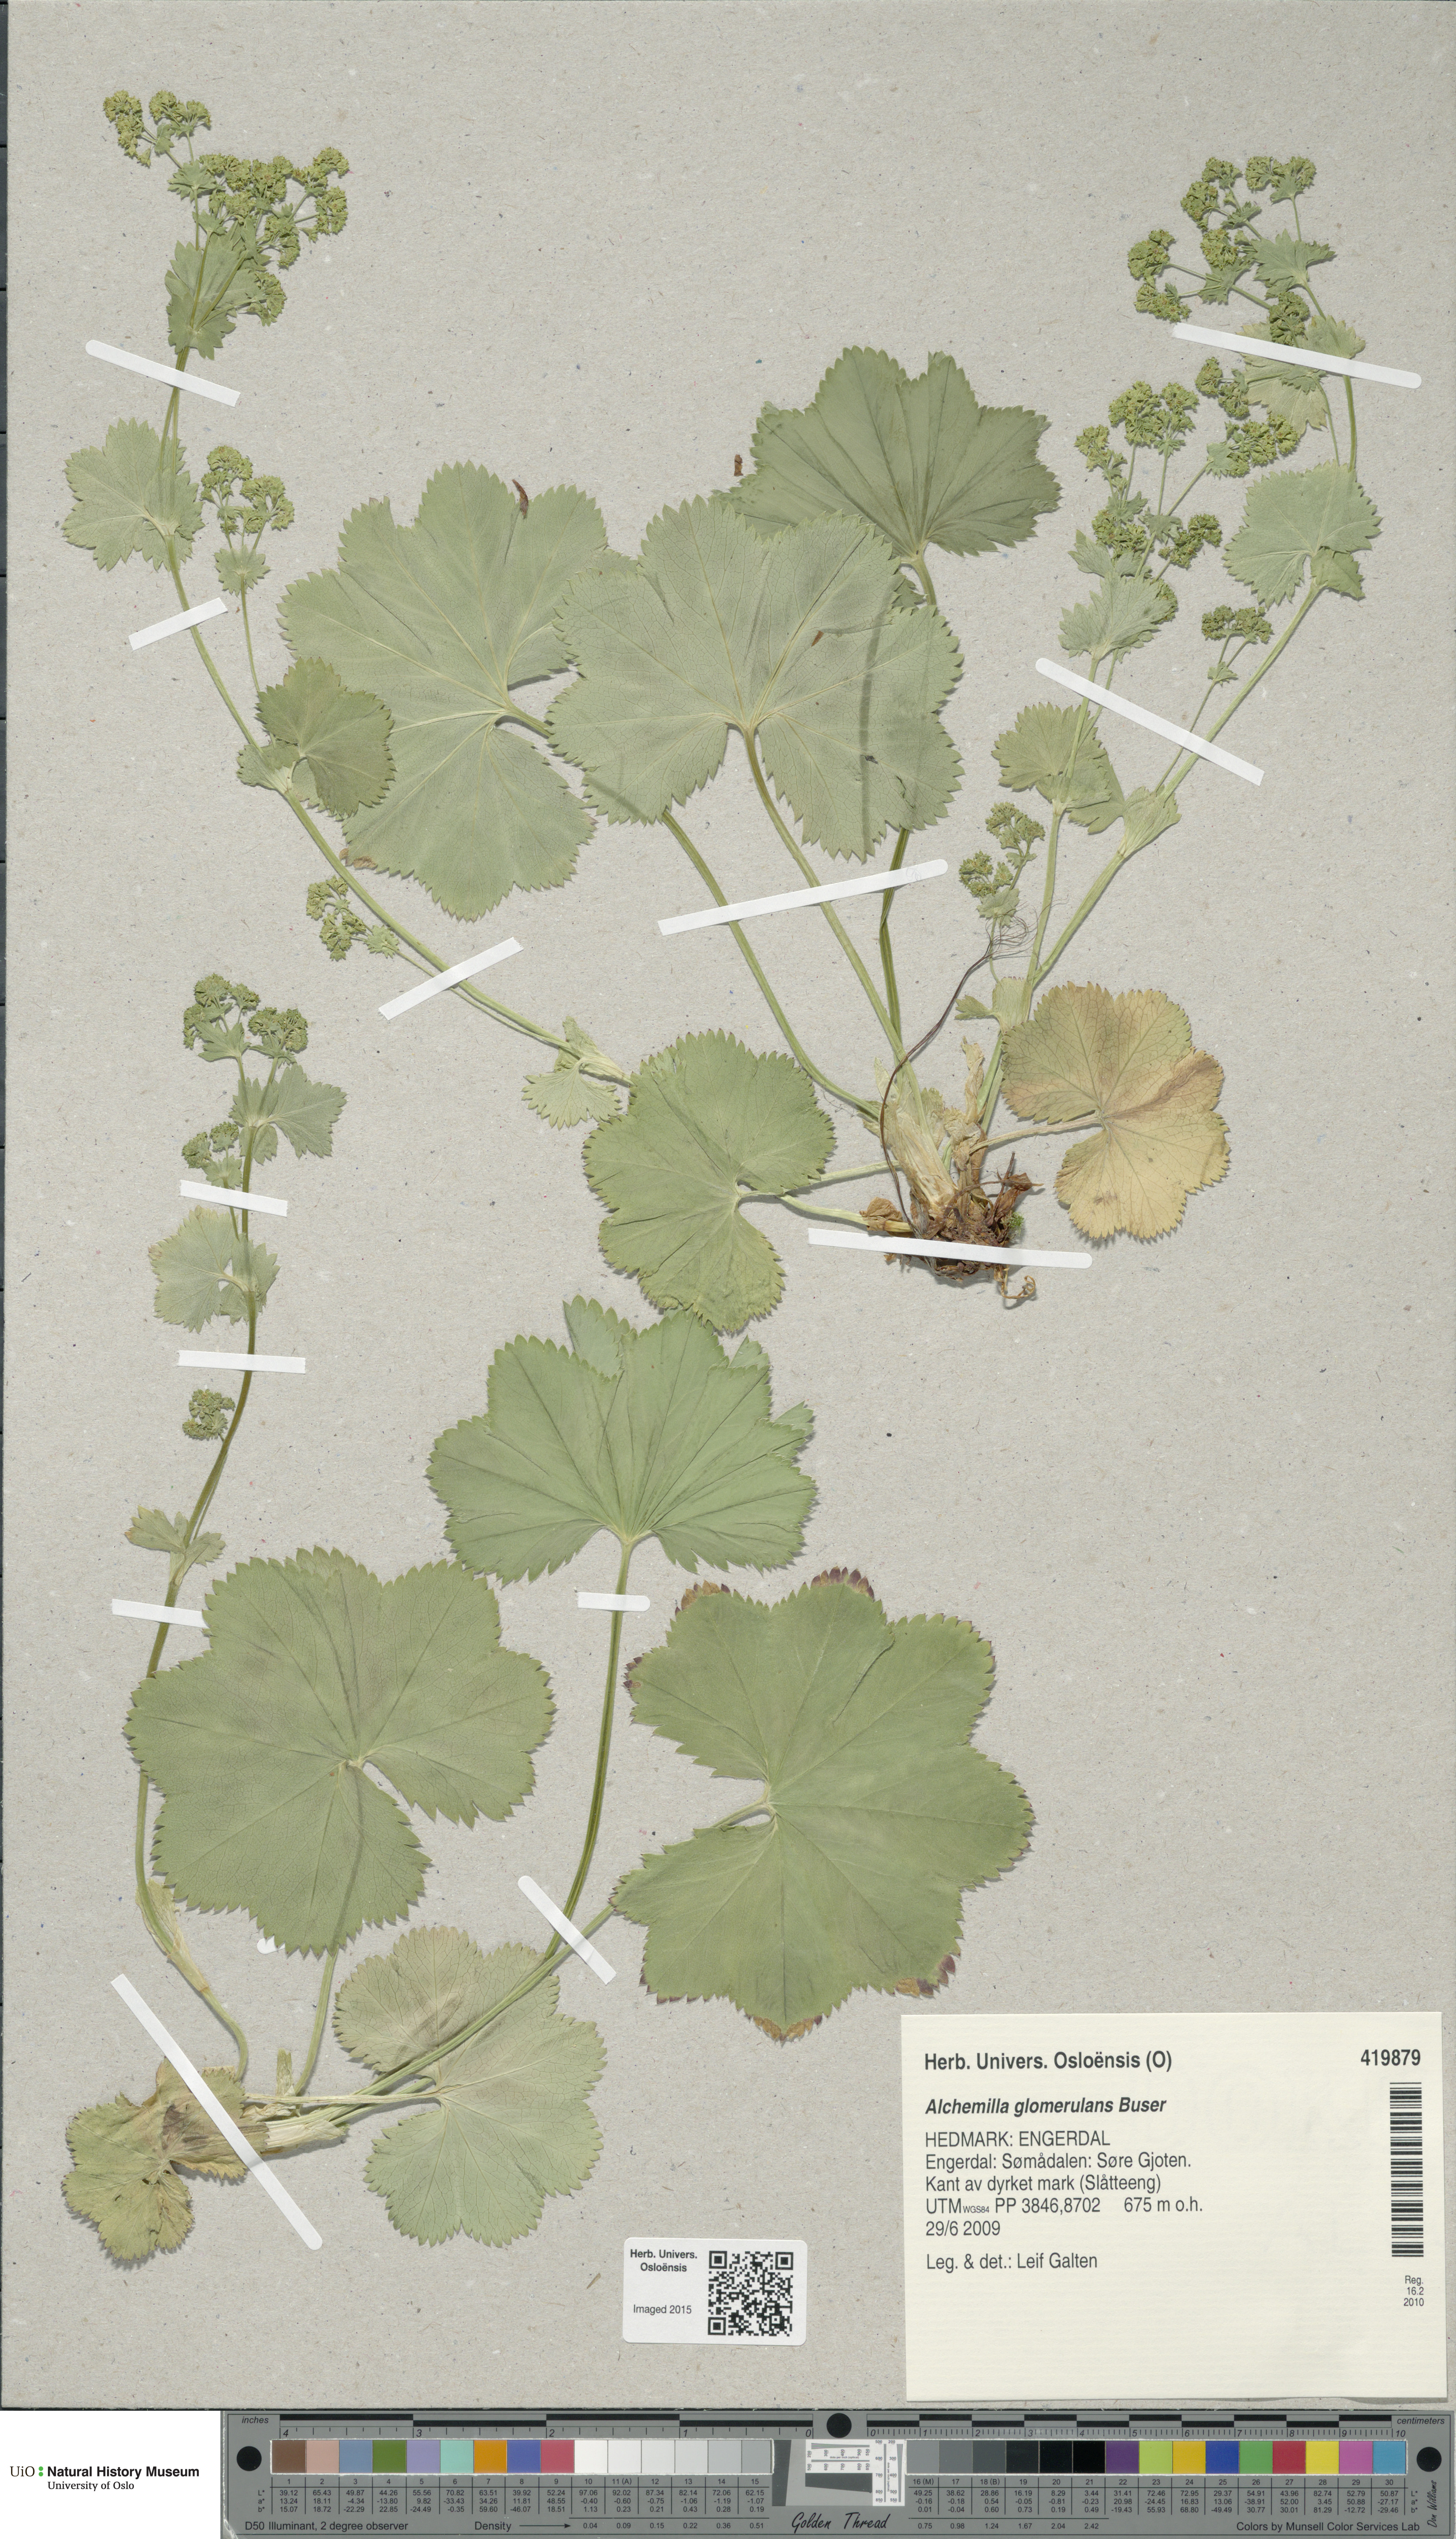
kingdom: Plantae
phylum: Tracheophyta
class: Magnoliopsida
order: Rosales
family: Rosaceae
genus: Alchemilla
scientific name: Alchemilla glomerulans
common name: Clustered lady's mantle
